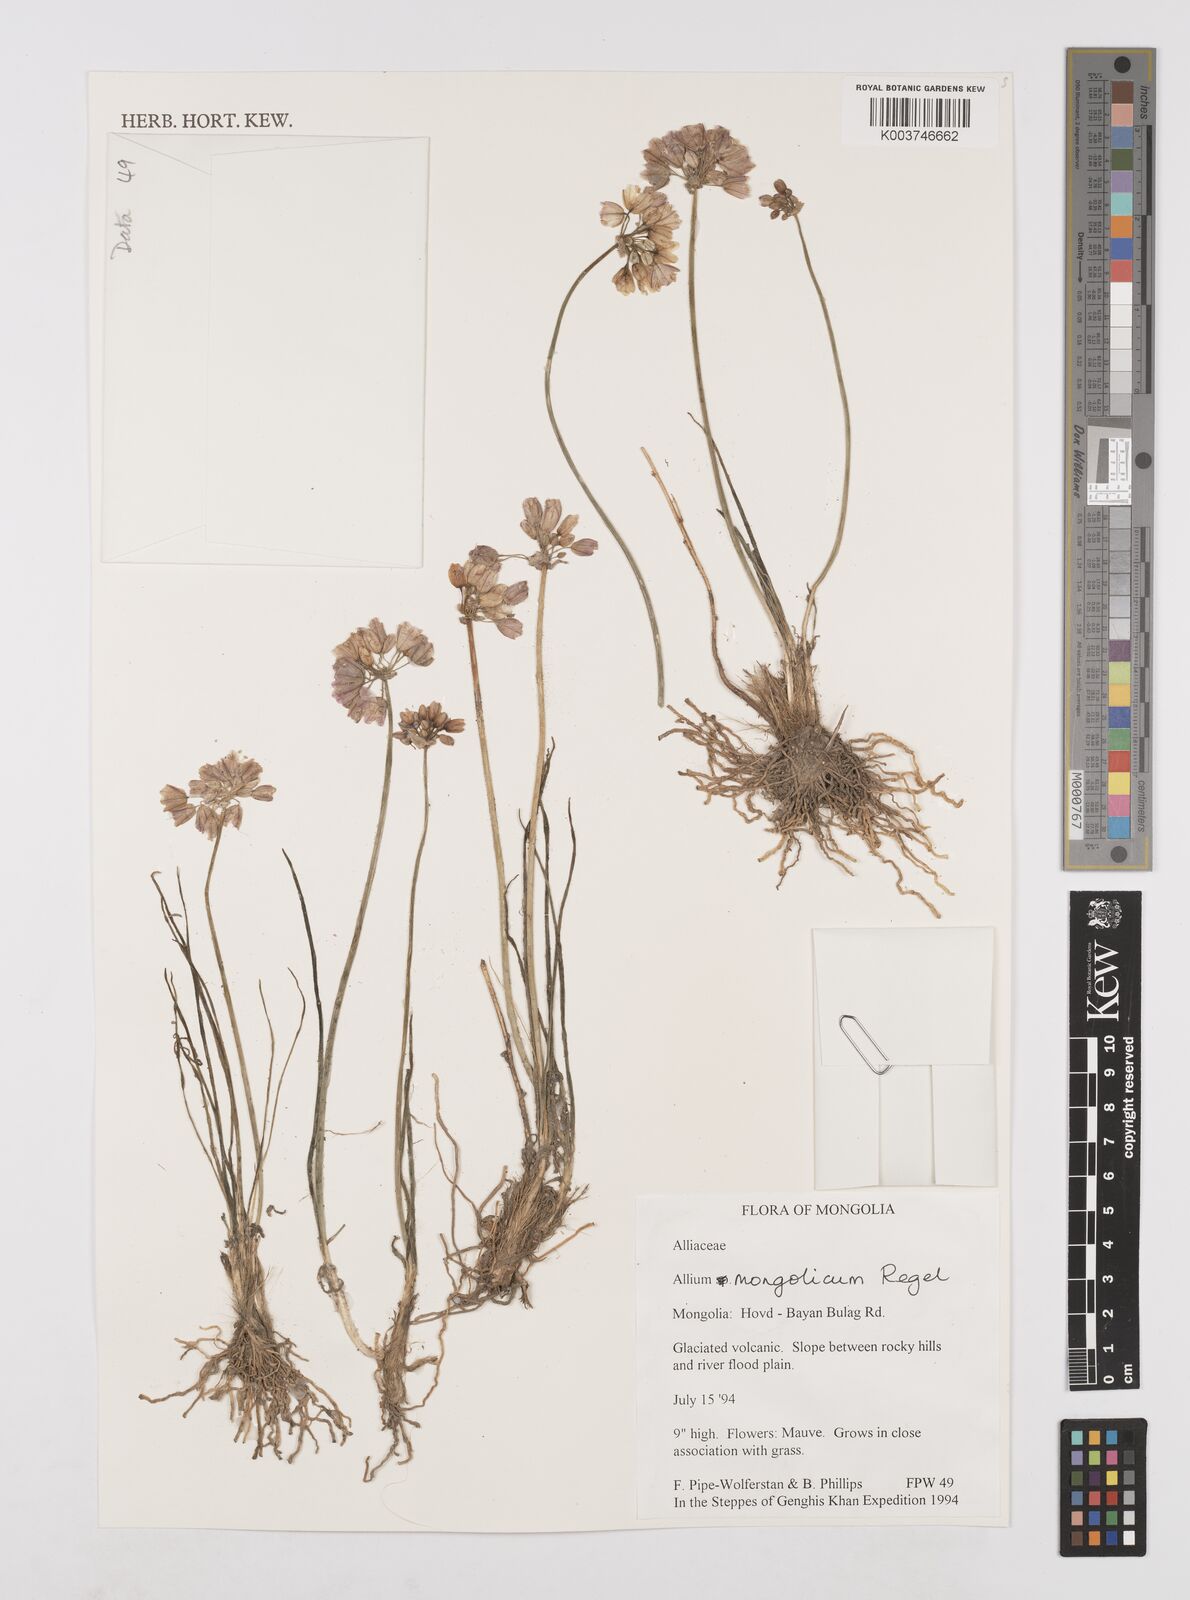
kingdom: Plantae
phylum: Tracheophyta
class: Liliopsida
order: Asparagales
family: Amaryllidaceae
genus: Allium
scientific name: Allium prattii
